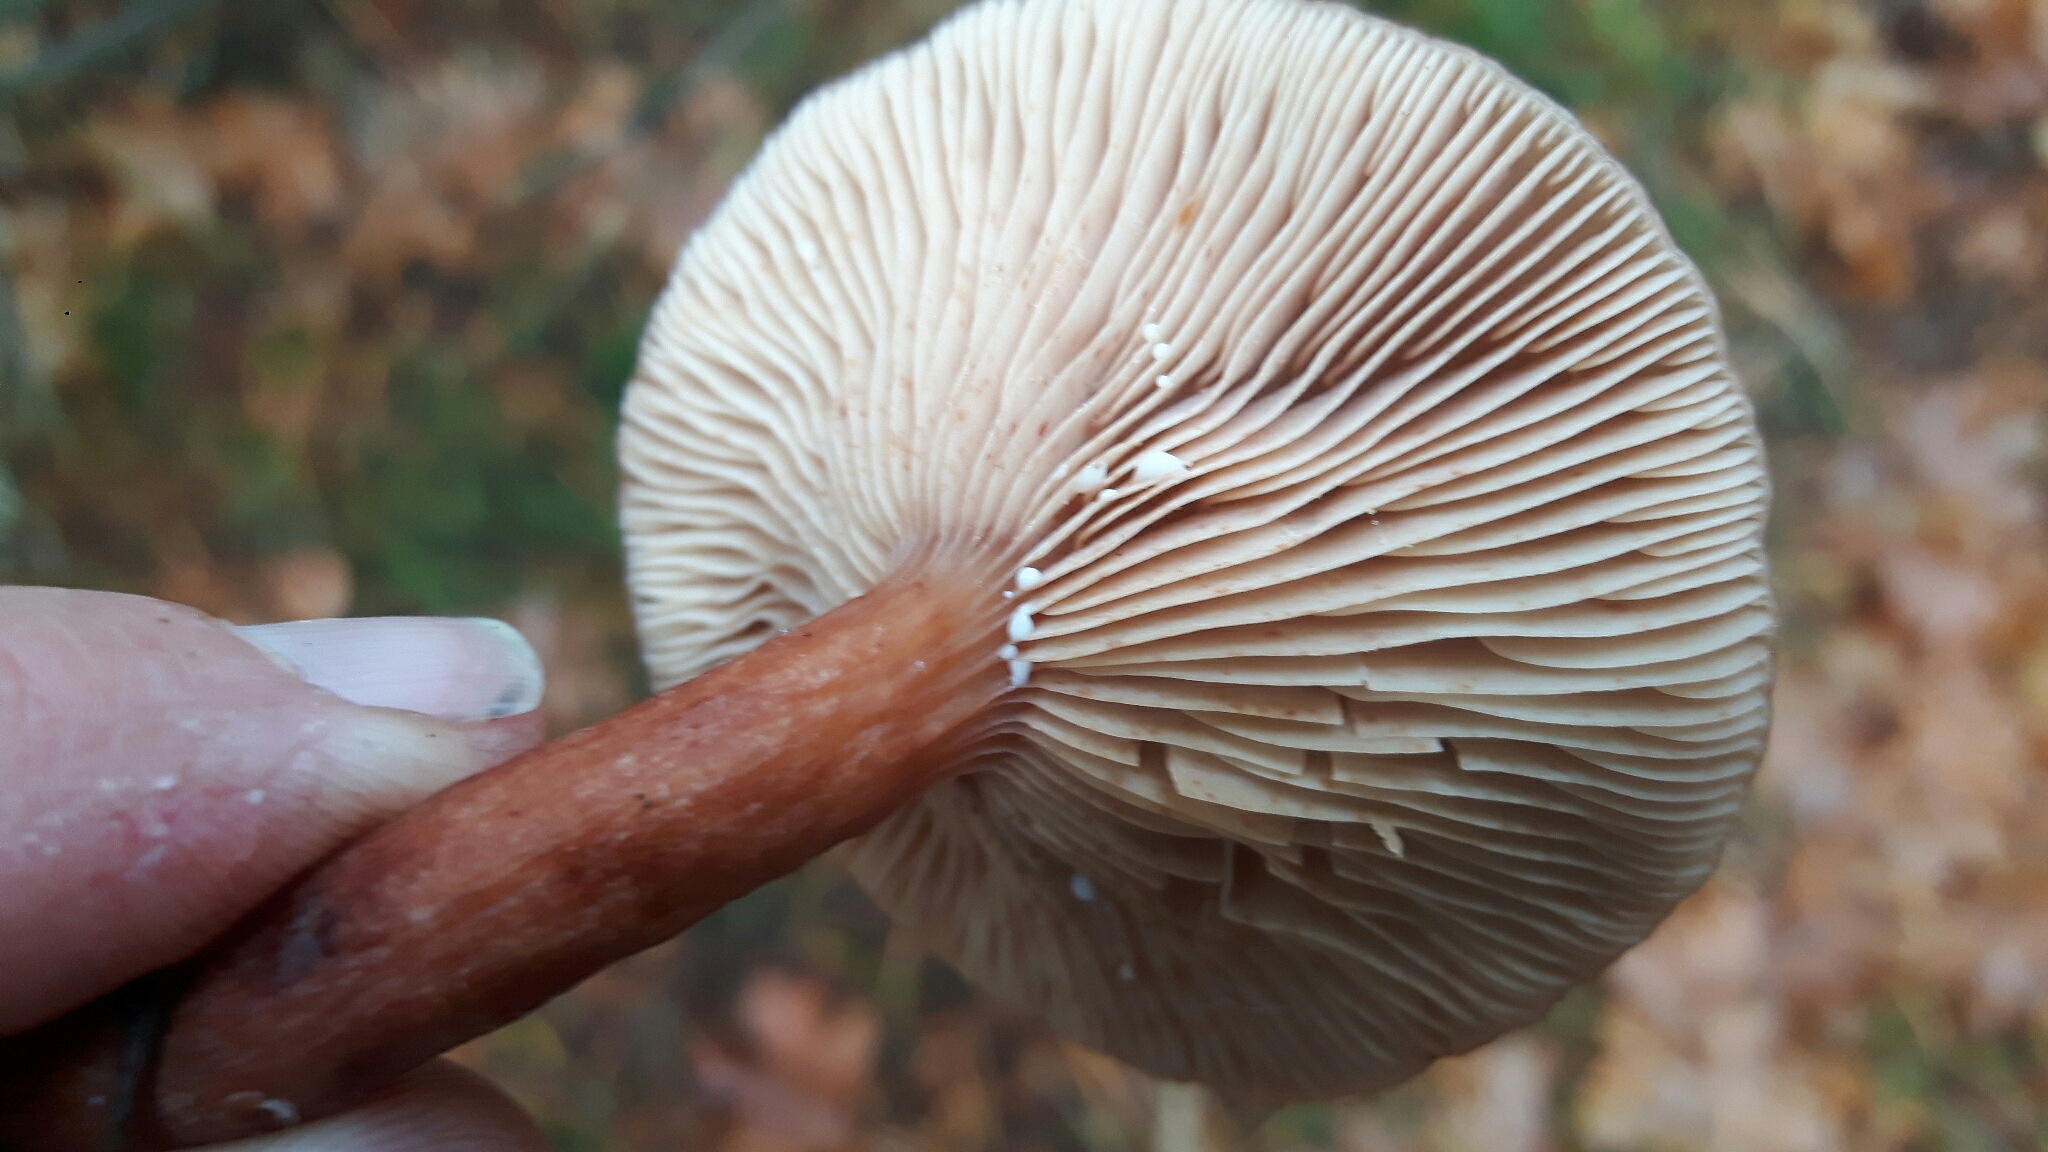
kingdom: Fungi
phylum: Basidiomycota
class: Agaricomycetes
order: Russulales
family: Russulaceae
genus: Lactarius
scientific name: Lactarius hepaticus
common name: leverbrun mælkehat
